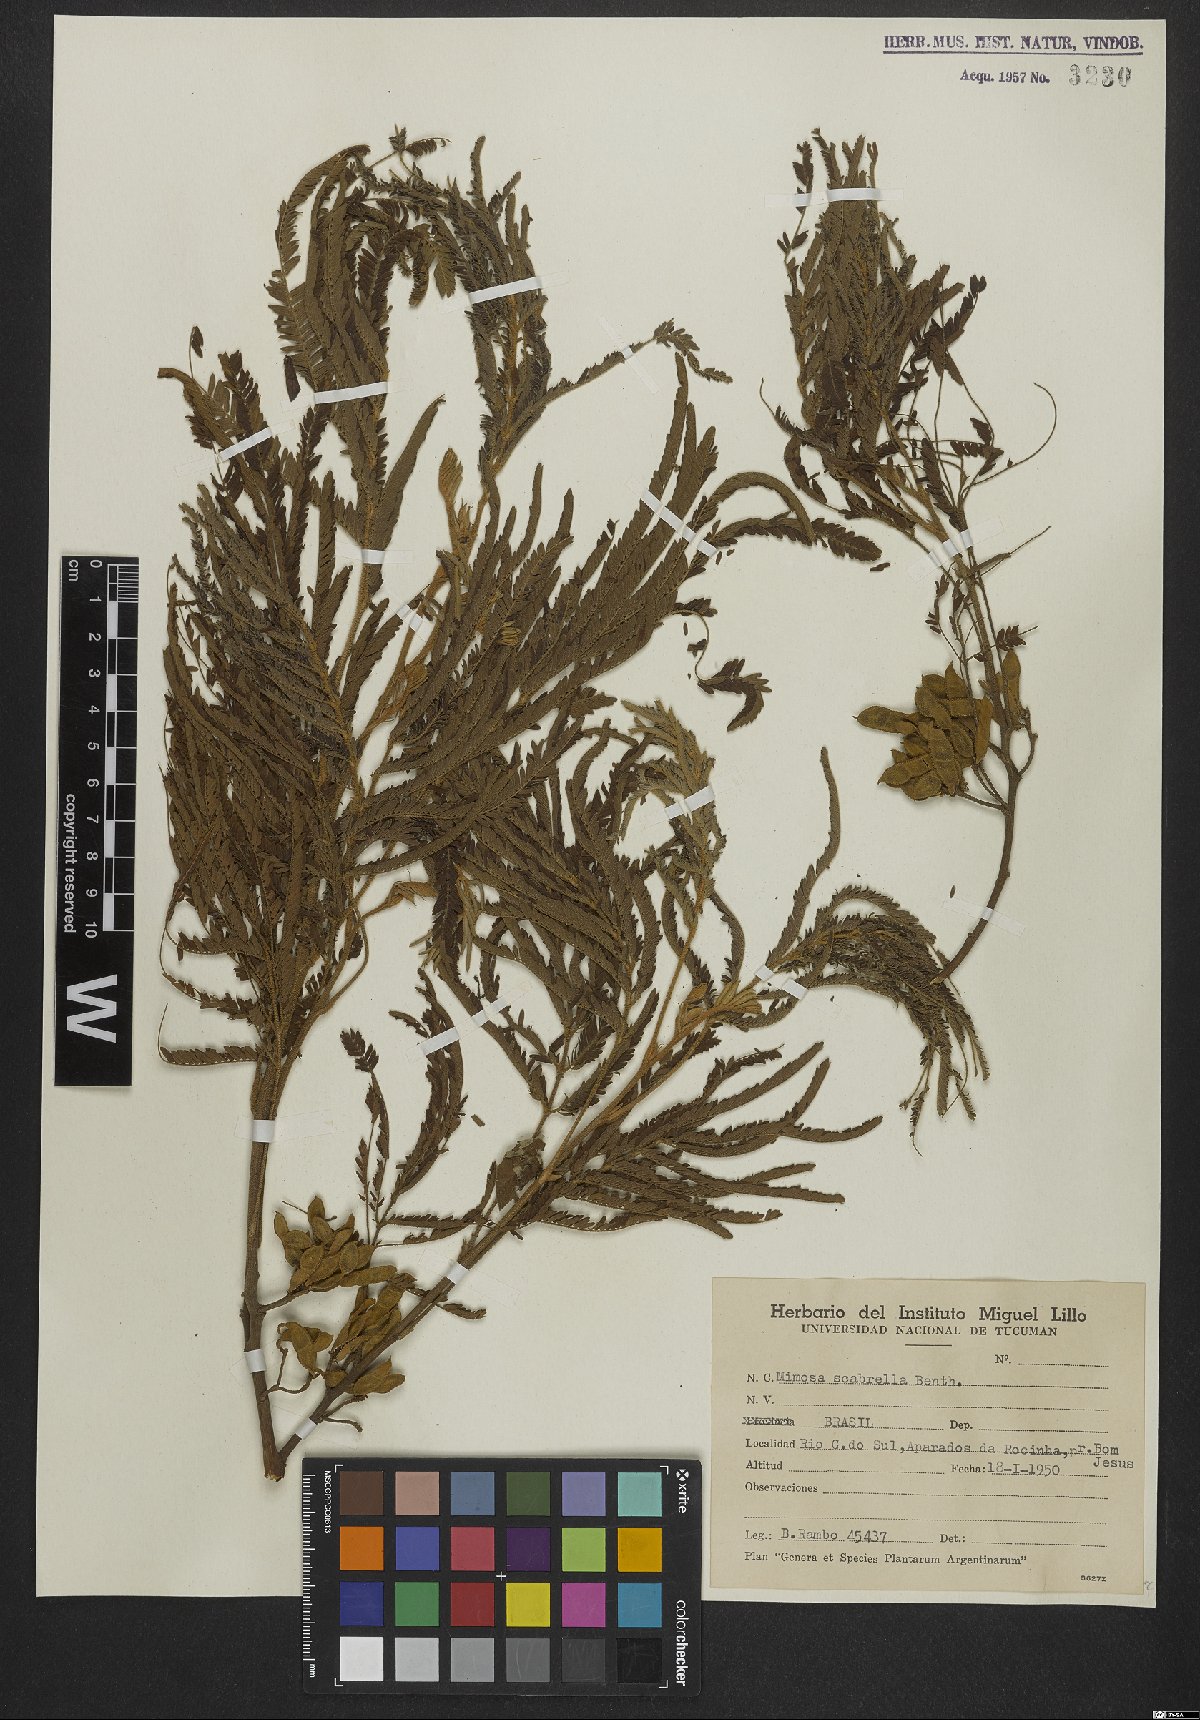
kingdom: Plantae
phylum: Tracheophyta
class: Magnoliopsida
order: Fabales
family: Fabaceae
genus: Mimosa
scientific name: Mimosa scabrella
